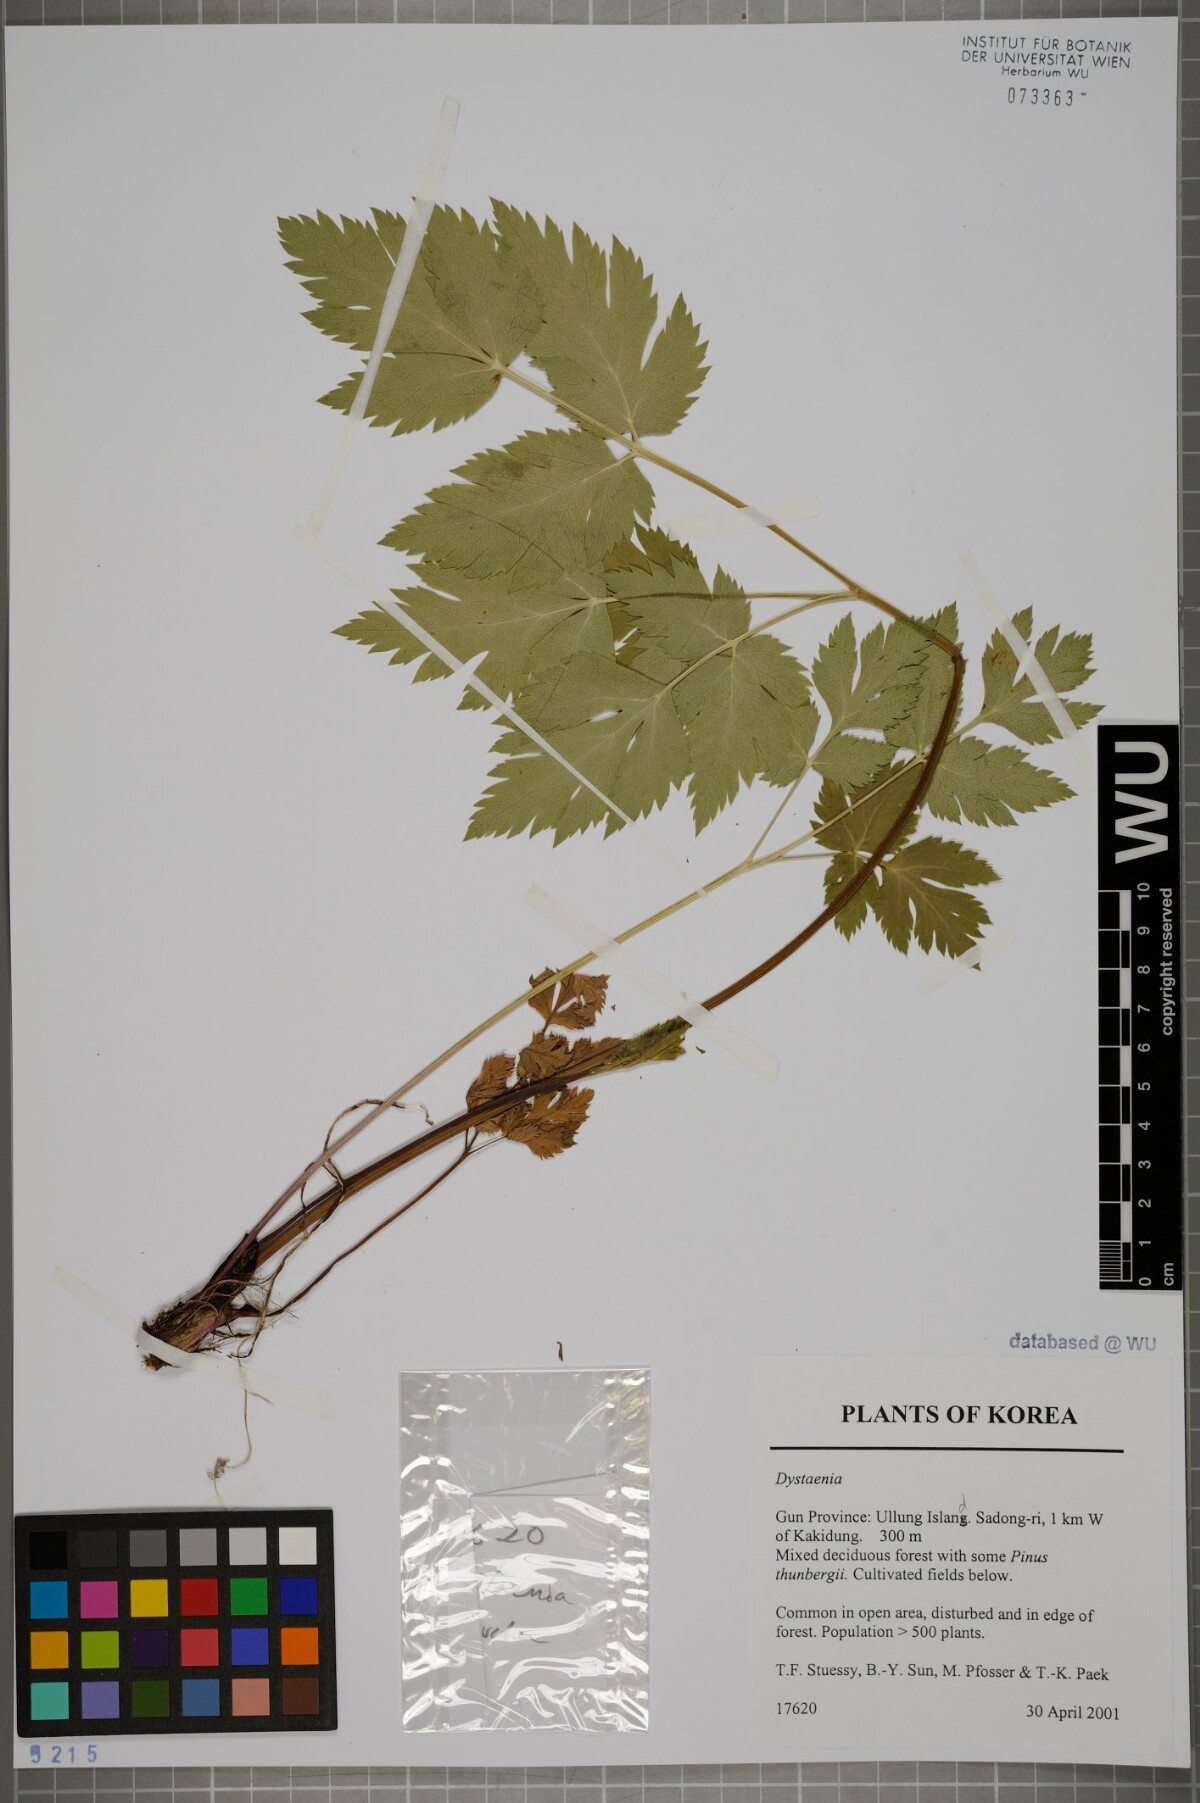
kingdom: Plantae
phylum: Tracheophyta
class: Magnoliopsida
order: Apiales
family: Apiaceae
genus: Dystaenia
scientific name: Dystaenia
